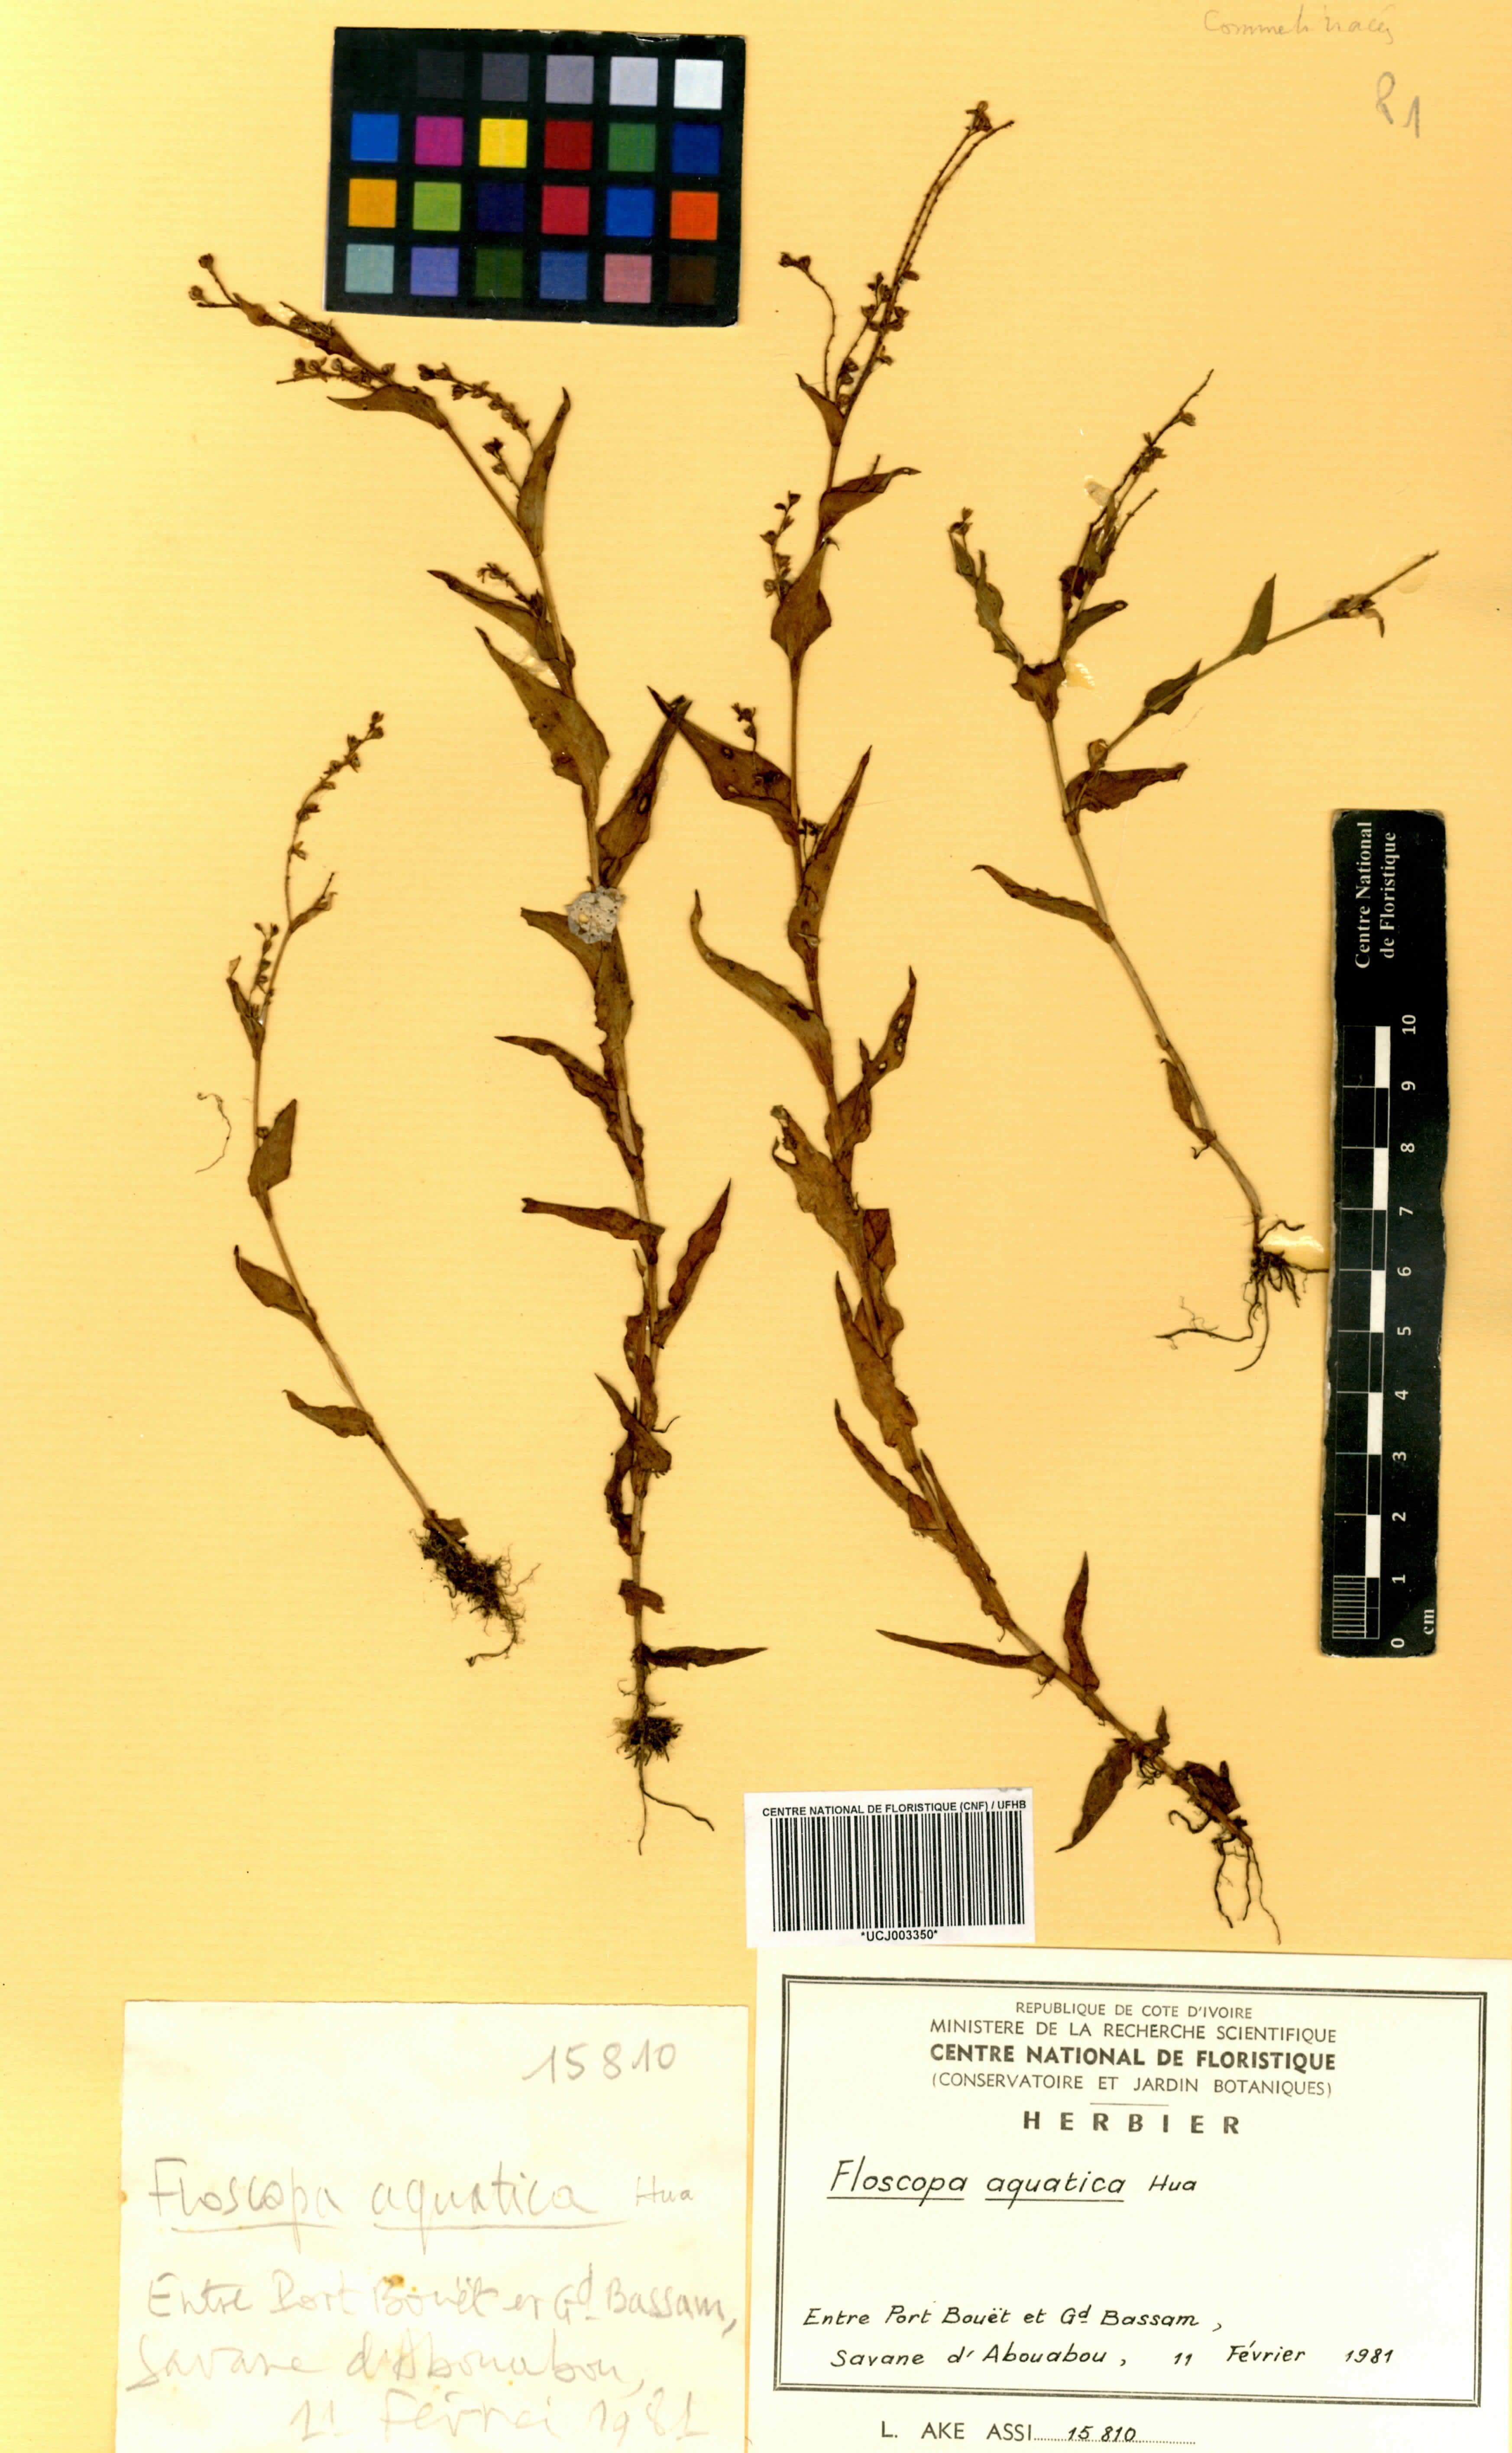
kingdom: Plantae
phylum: Tracheophyta
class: Liliopsida
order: Commelinales
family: Commelinaceae
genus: Floscopa
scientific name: Floscopa aquatica
